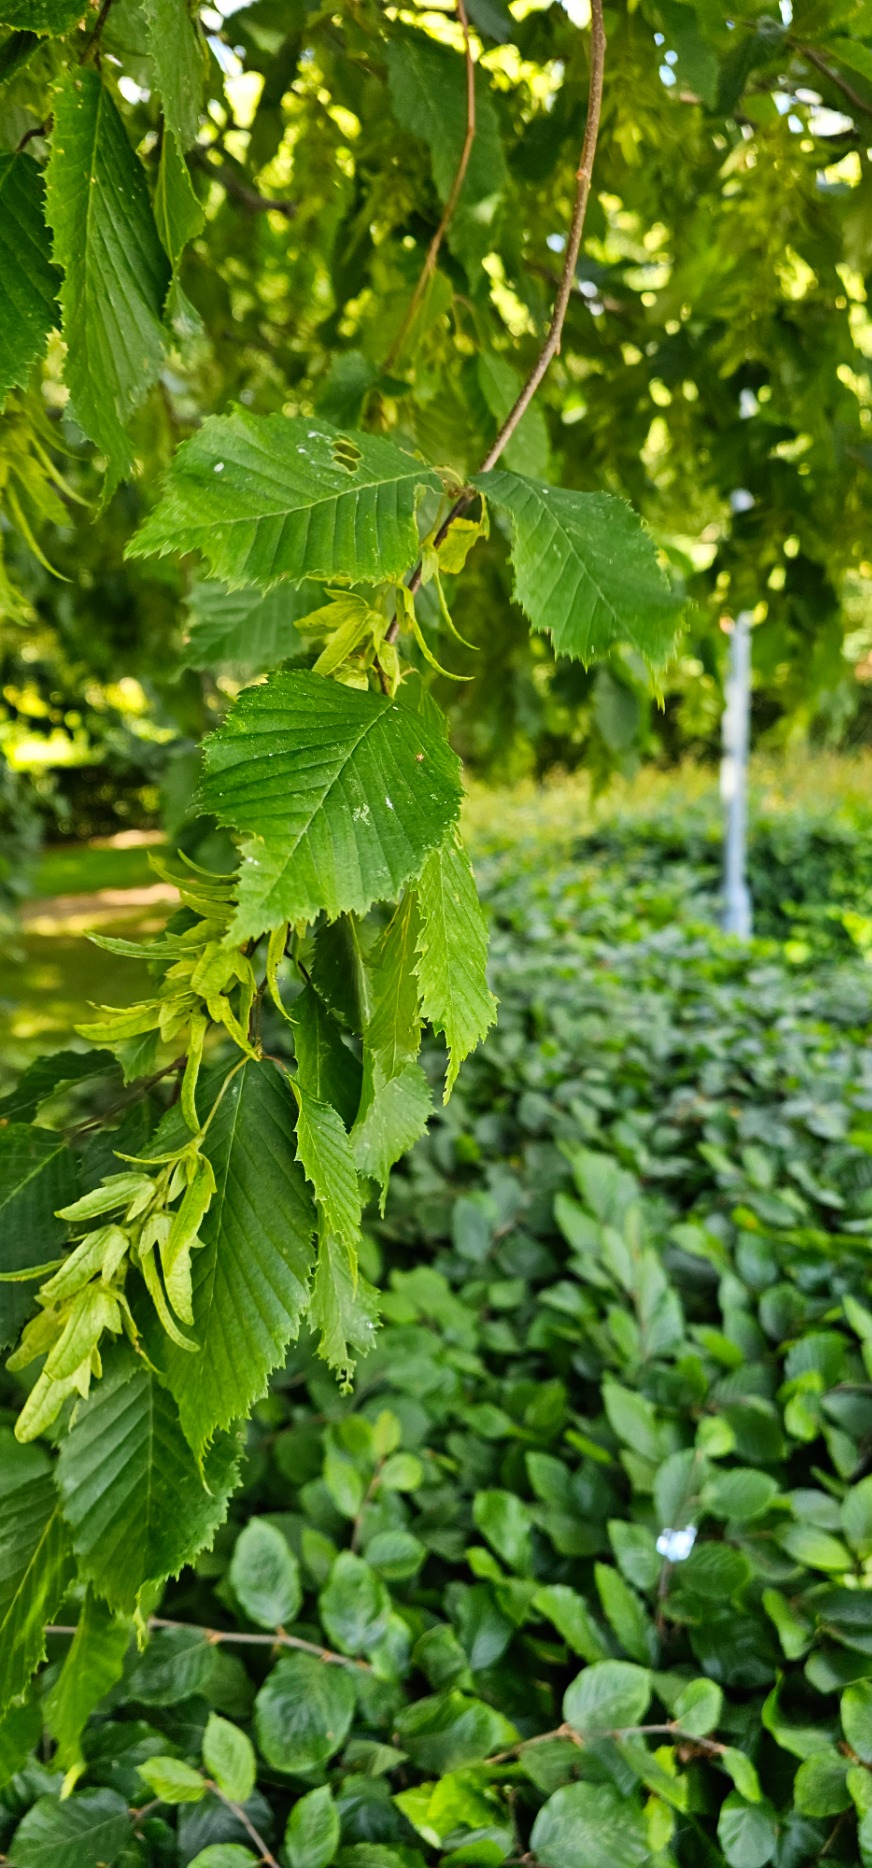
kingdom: Plantae
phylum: Tracheophyta
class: Magnoliopsida
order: Fagales
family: Betulaceae
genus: Carpinus
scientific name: Carpinus betulus
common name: Avnbøg
